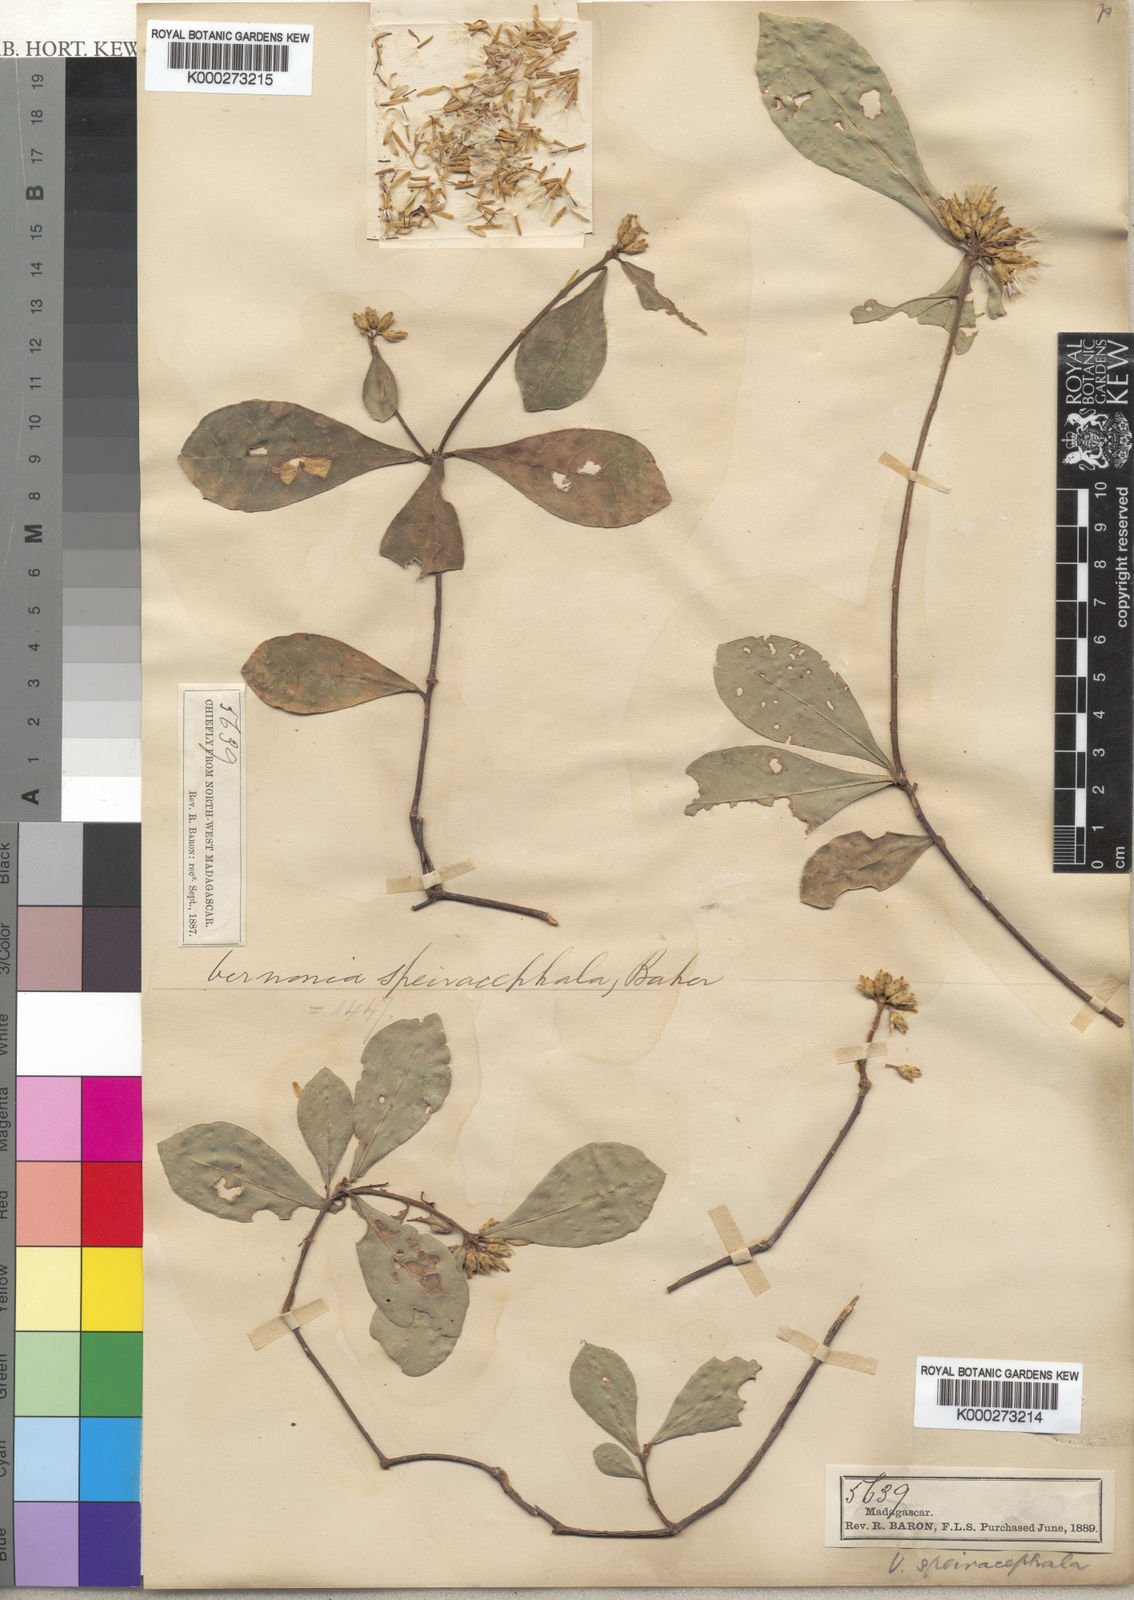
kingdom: Plantae
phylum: Tracheophyta
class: Magnoliopsida
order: Asterales
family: Asteraceae
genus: Vernonia
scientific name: Vernonia speiracephala
